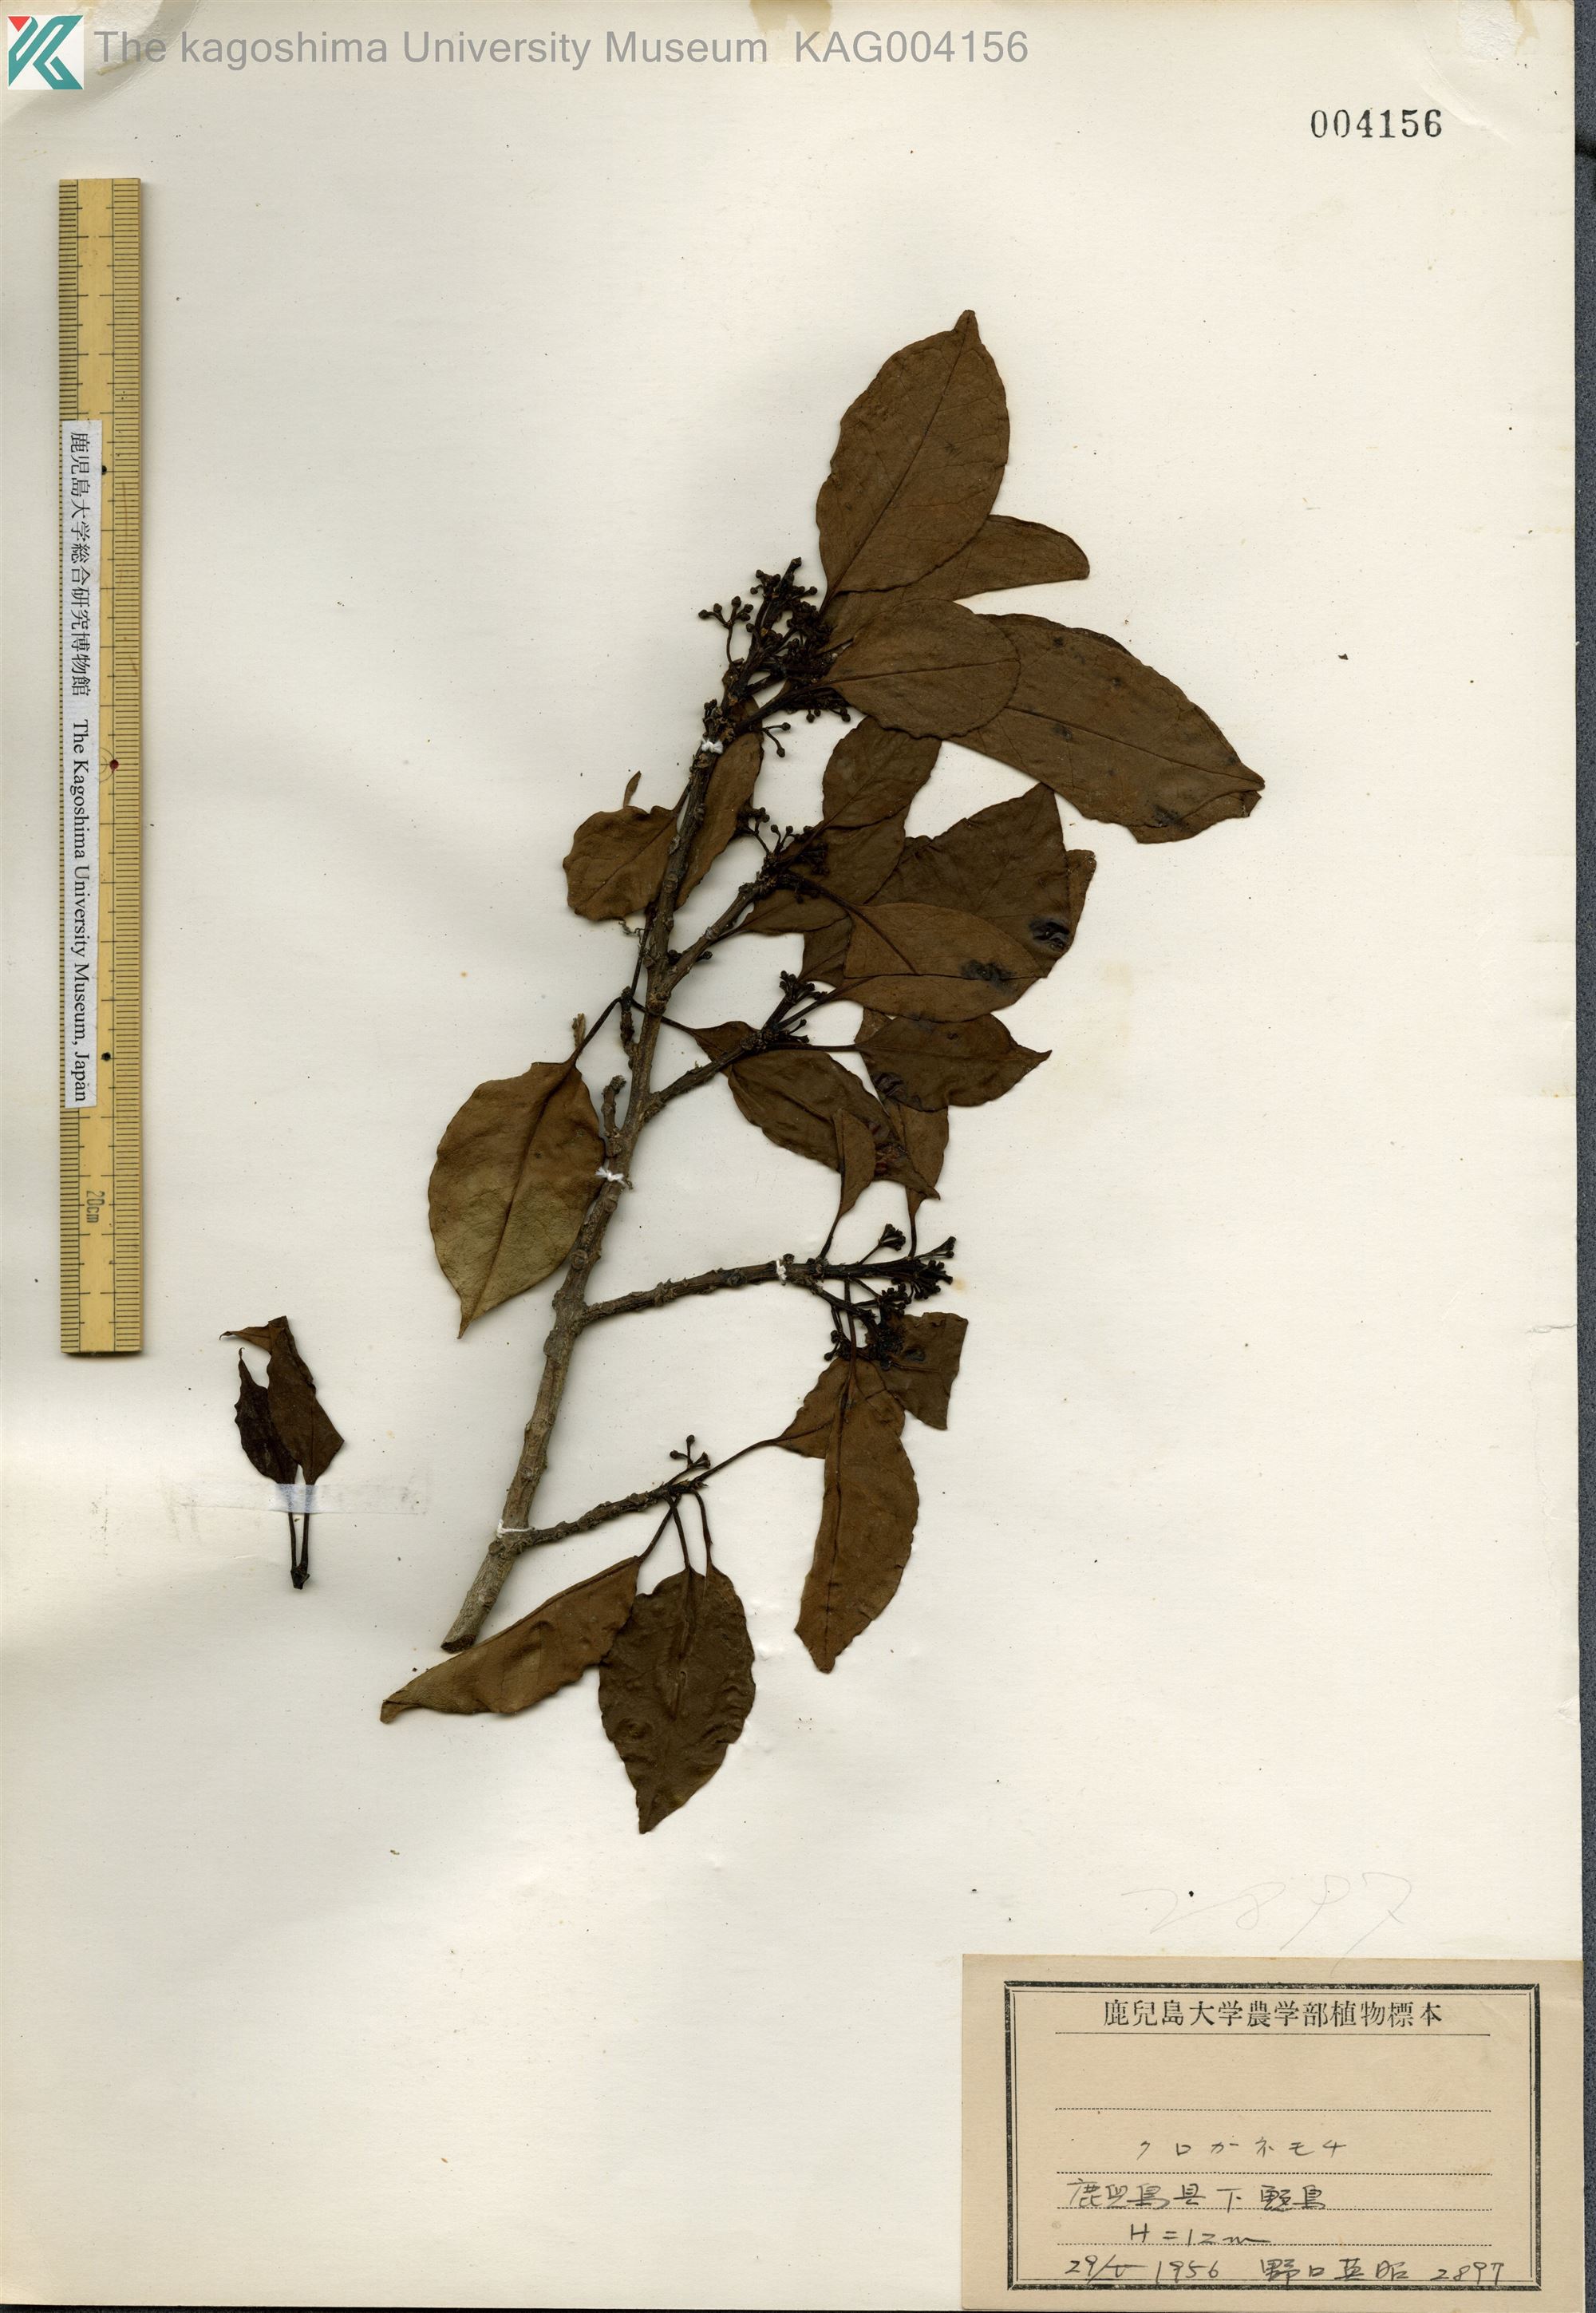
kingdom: Plantae
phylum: Tracheophyta
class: Magnoliopsida
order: Aquifoliales
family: Aquifoliaceae
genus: Ilex
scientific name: Ilex rotunda
